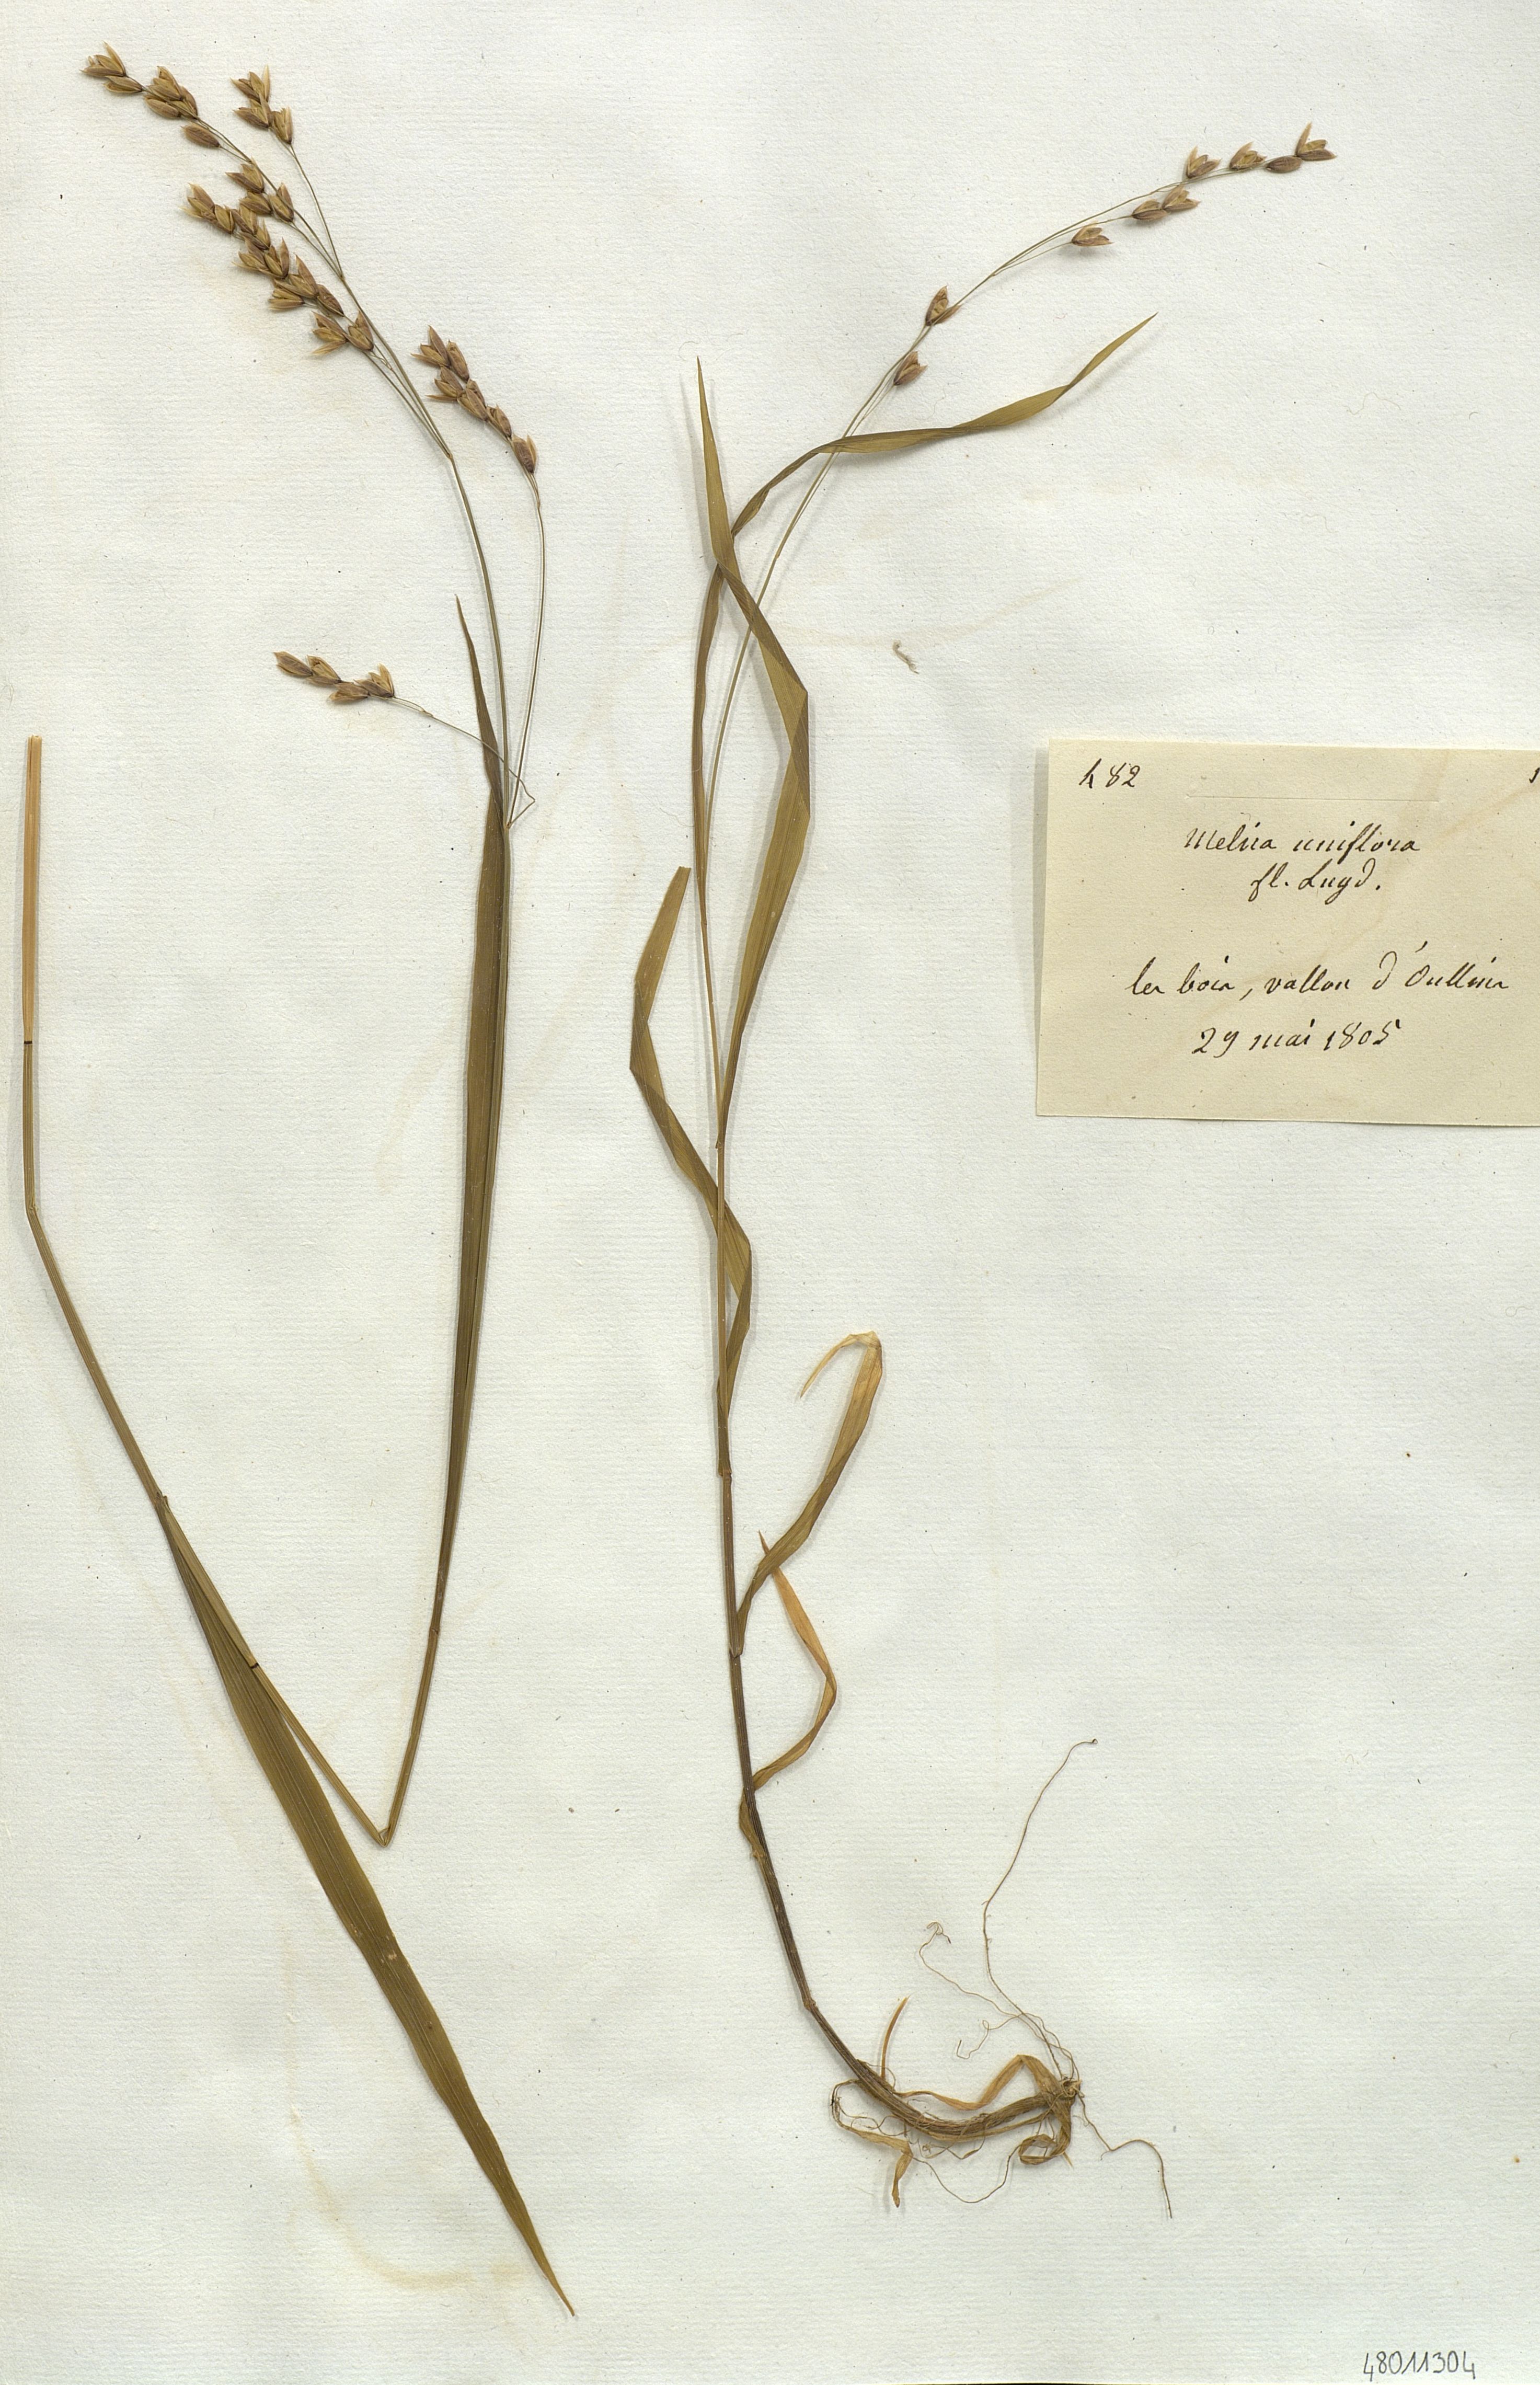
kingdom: Plantae
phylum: Tracheophyta
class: Liliopsida
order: Poales
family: Poaceae
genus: Melica
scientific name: Melica uniflora
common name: Wood melick
